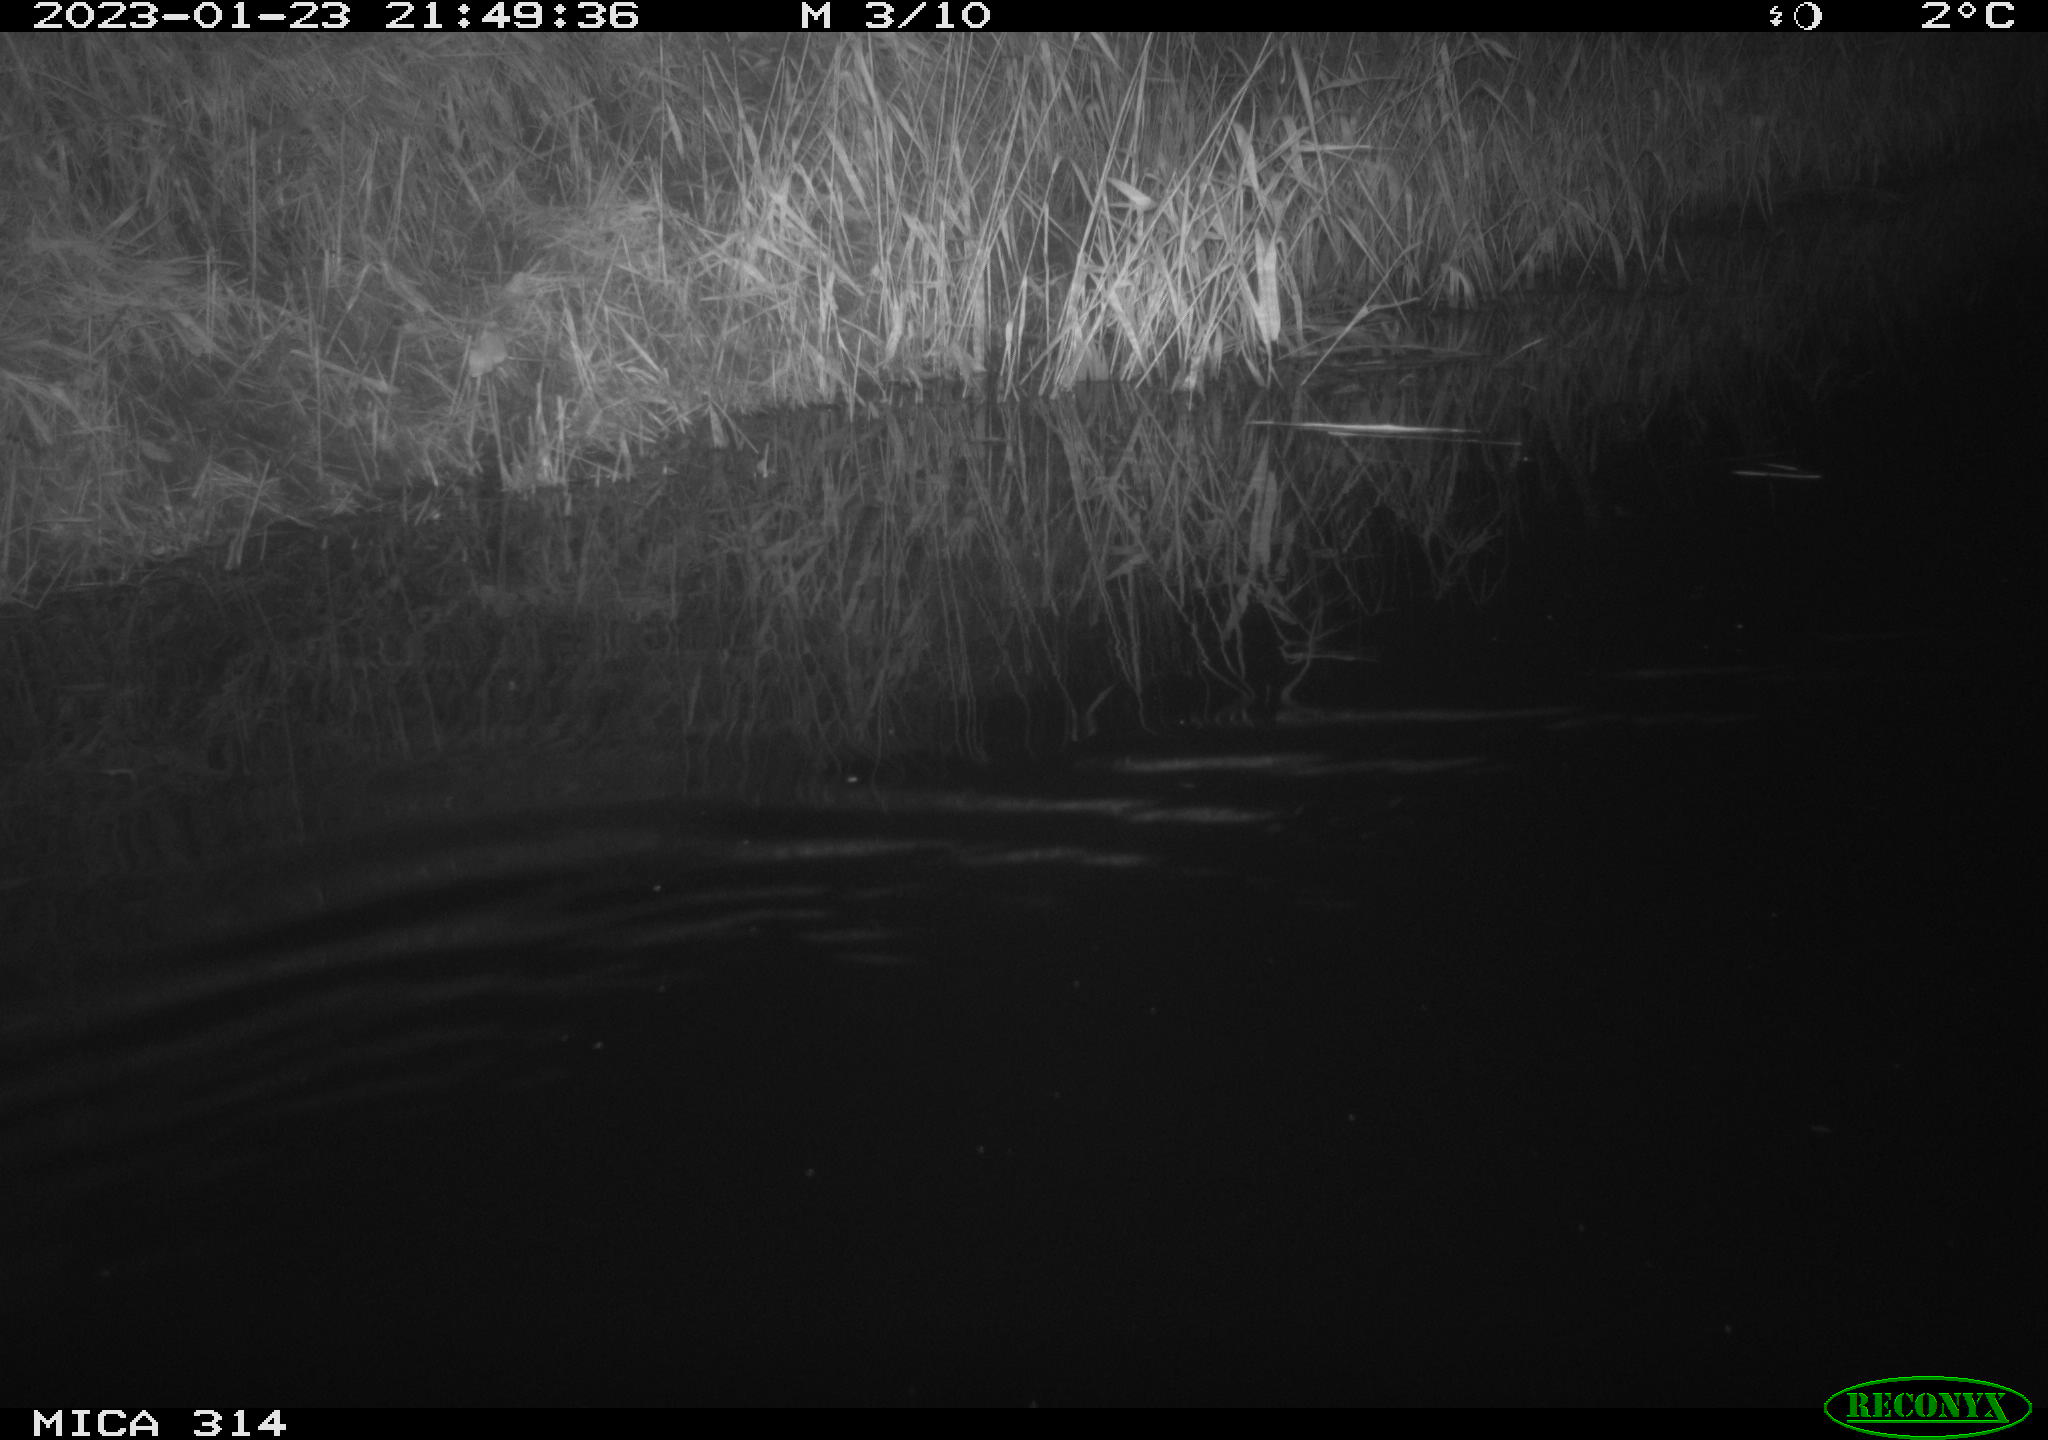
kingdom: Animalia
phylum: Chordata
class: Mammalia
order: Rodentia
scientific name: Rodentia
